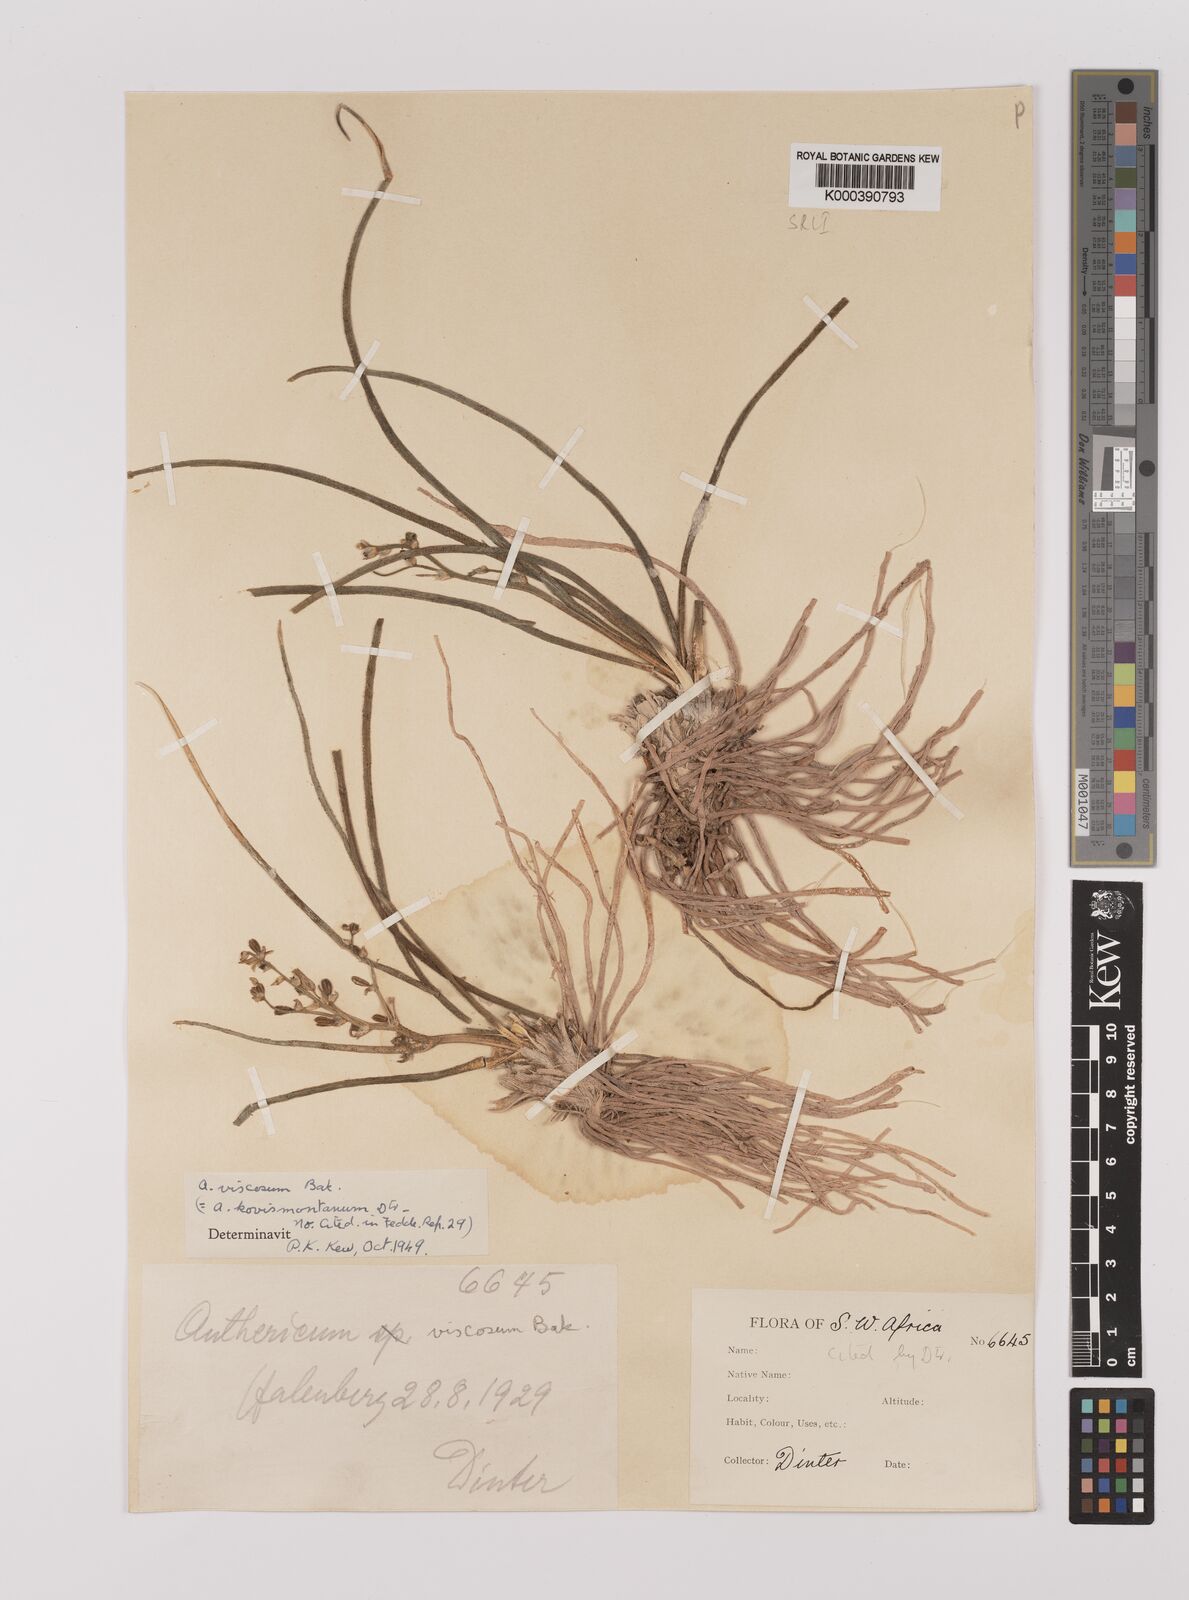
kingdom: Plantae
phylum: Tracheophyta
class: Liliopsida
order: Asparagales
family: Asparagaceae
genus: Chlorophytum
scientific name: Chlorophytum viscosum
